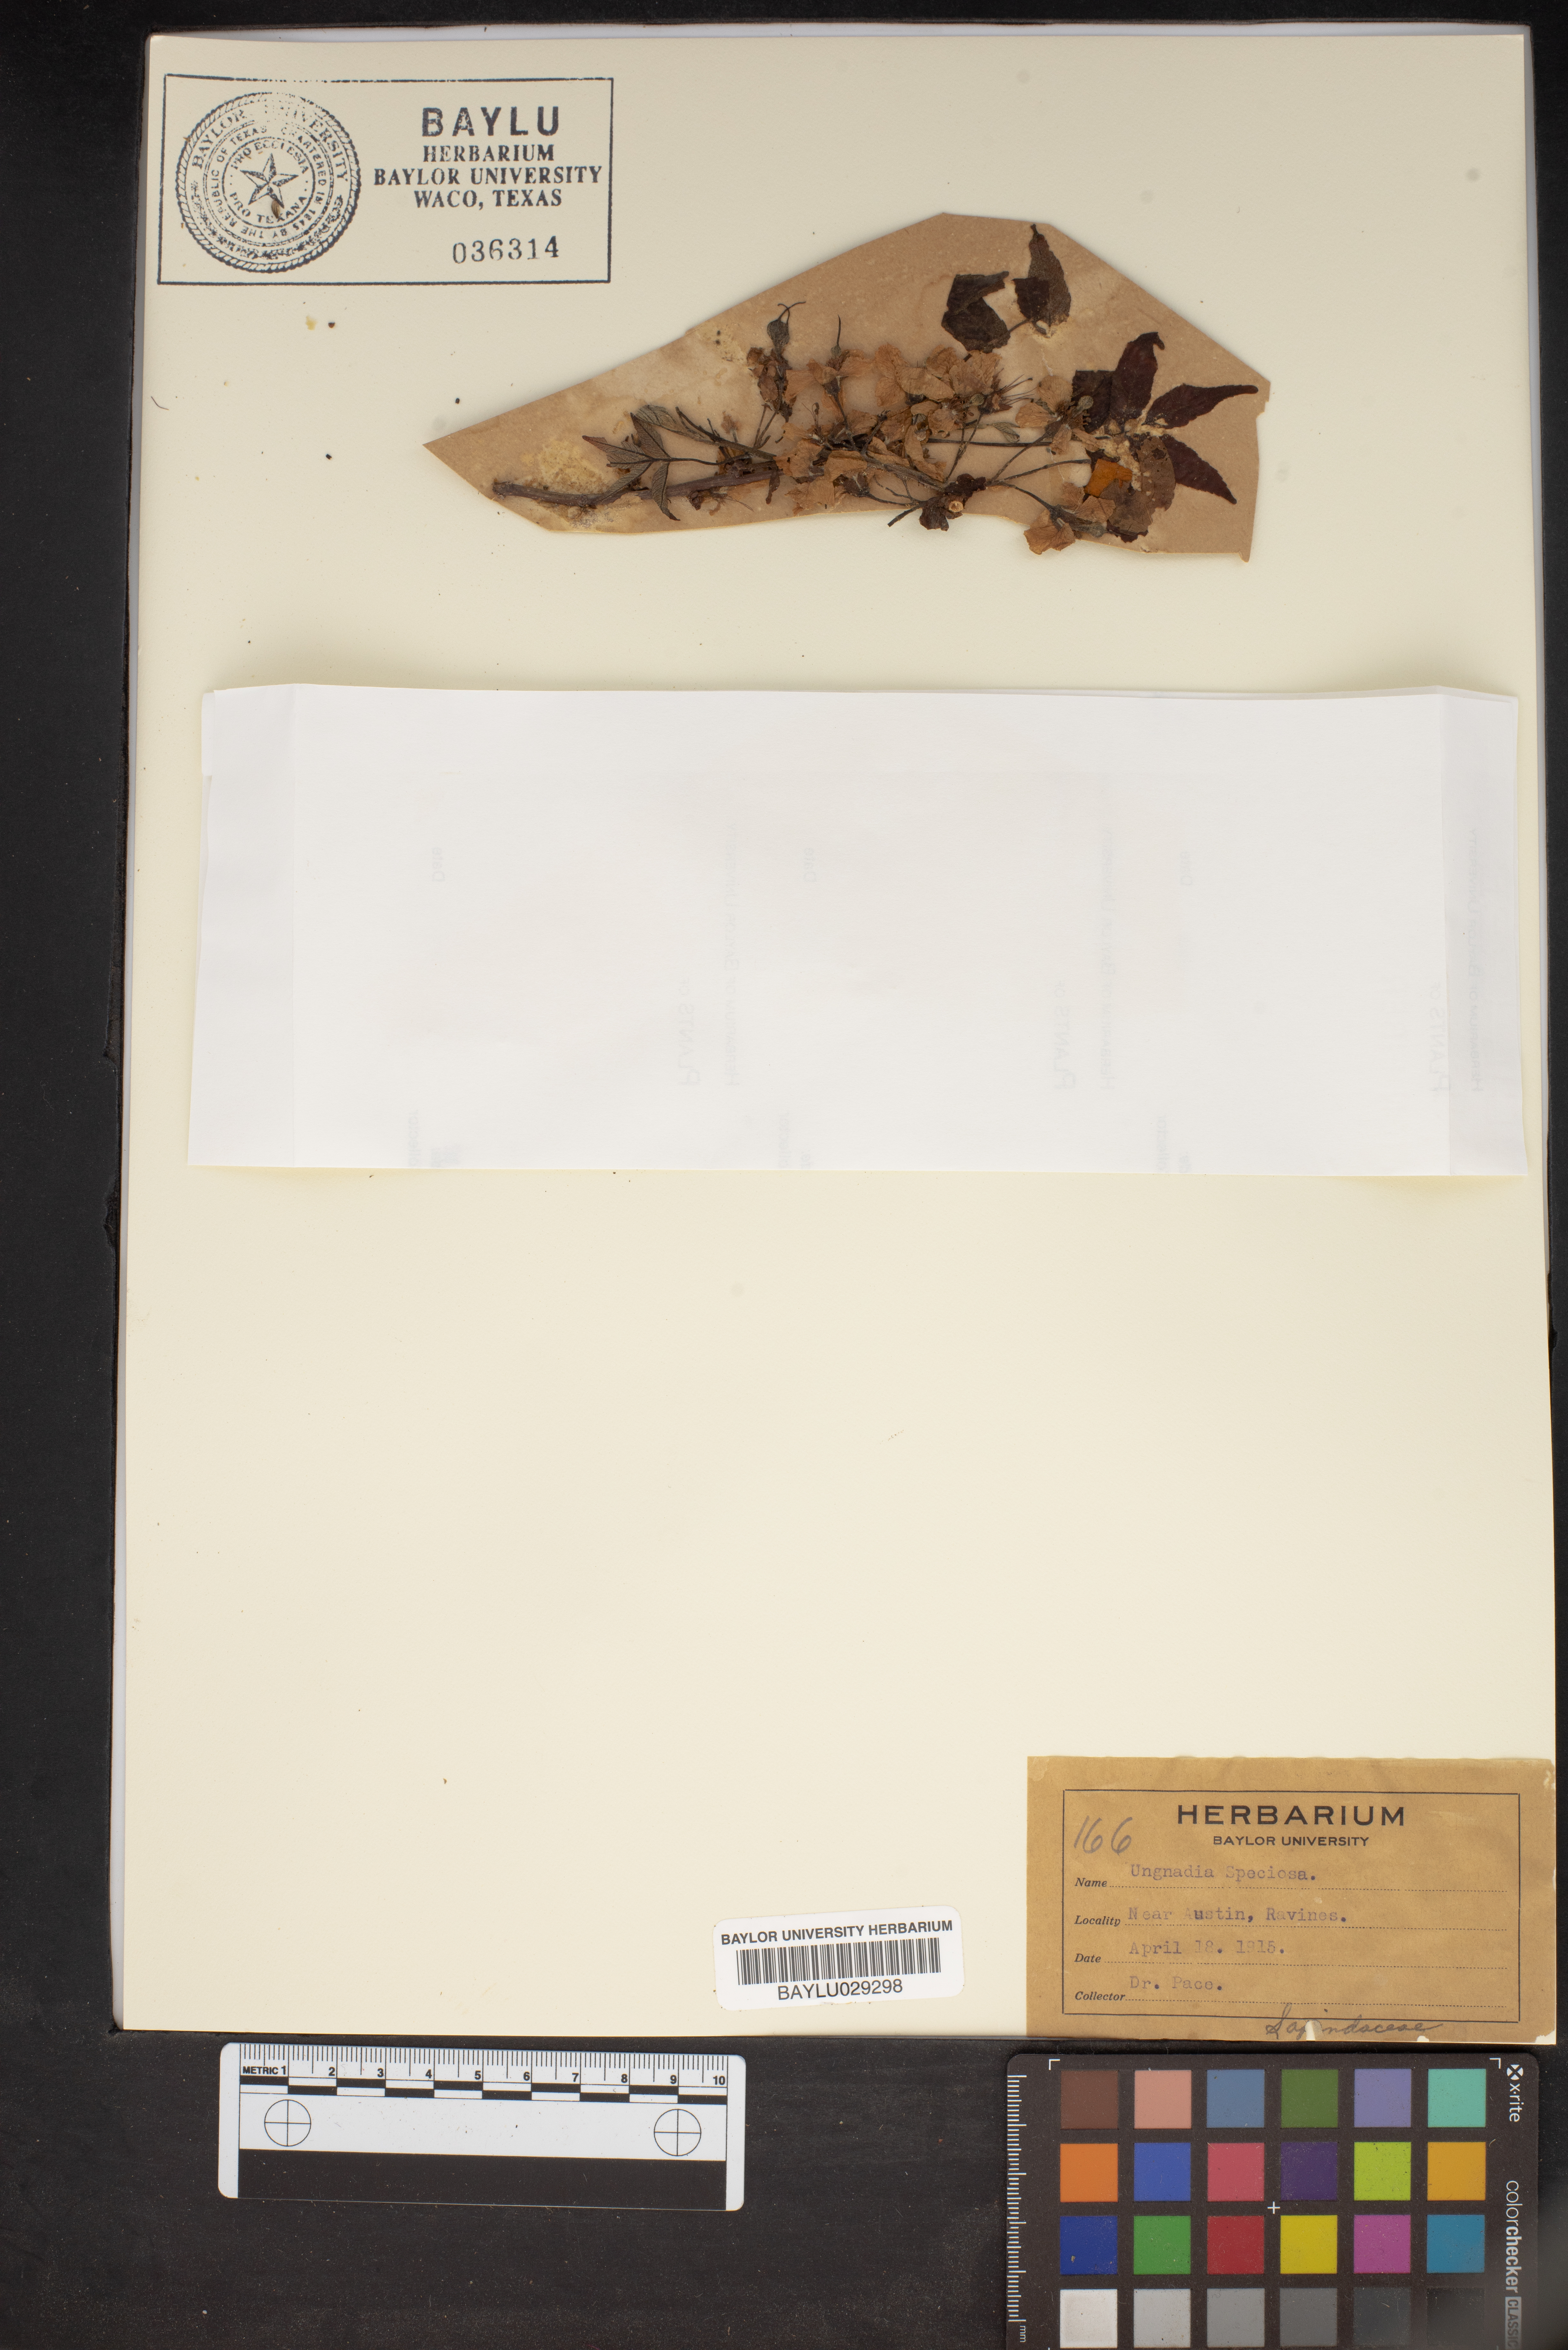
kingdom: Plantae
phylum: Tracheophyta
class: Magnoliopsida
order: Sapindales
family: Sapindaceae
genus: Ungnadia
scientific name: Ungnadia speciosa
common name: Texas-buckeye
